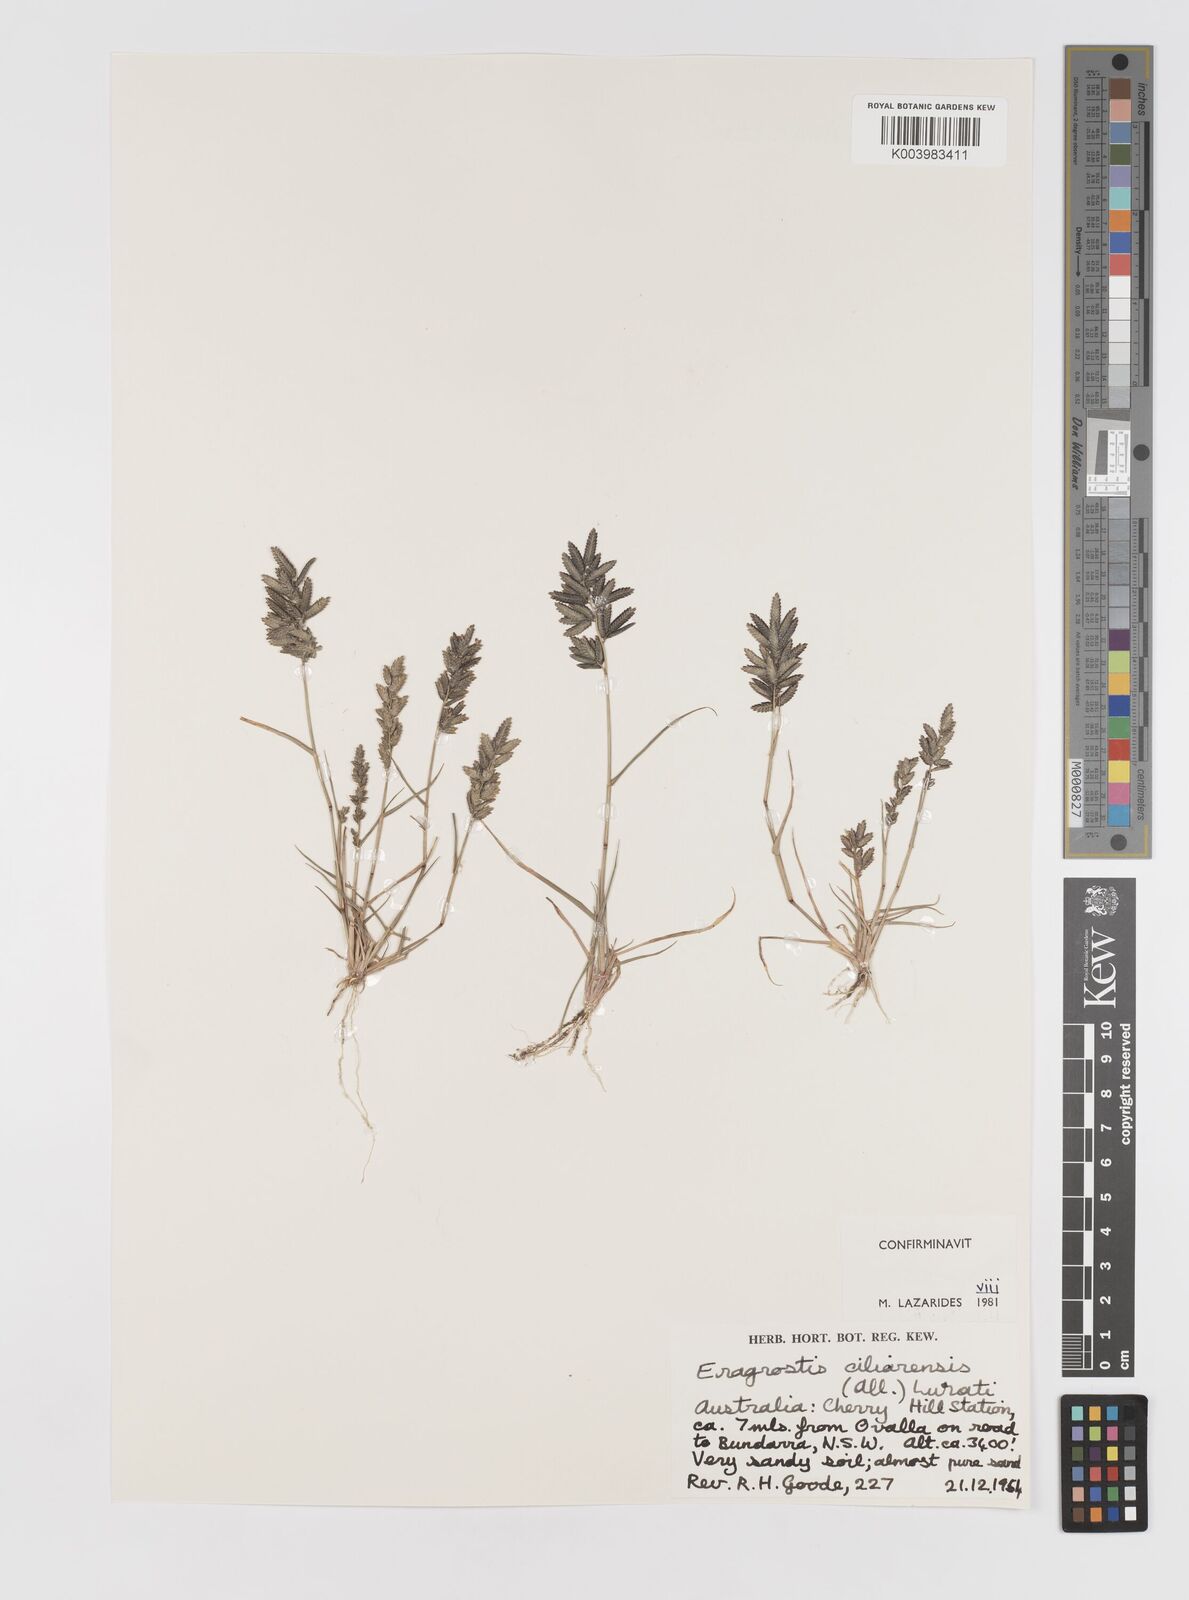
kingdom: Plantae
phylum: Tracheophyta
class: Liliopsida
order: Poales
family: Poaceae
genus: Eragrostis
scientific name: Eragrostis cilianensis
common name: Stinkgrass
